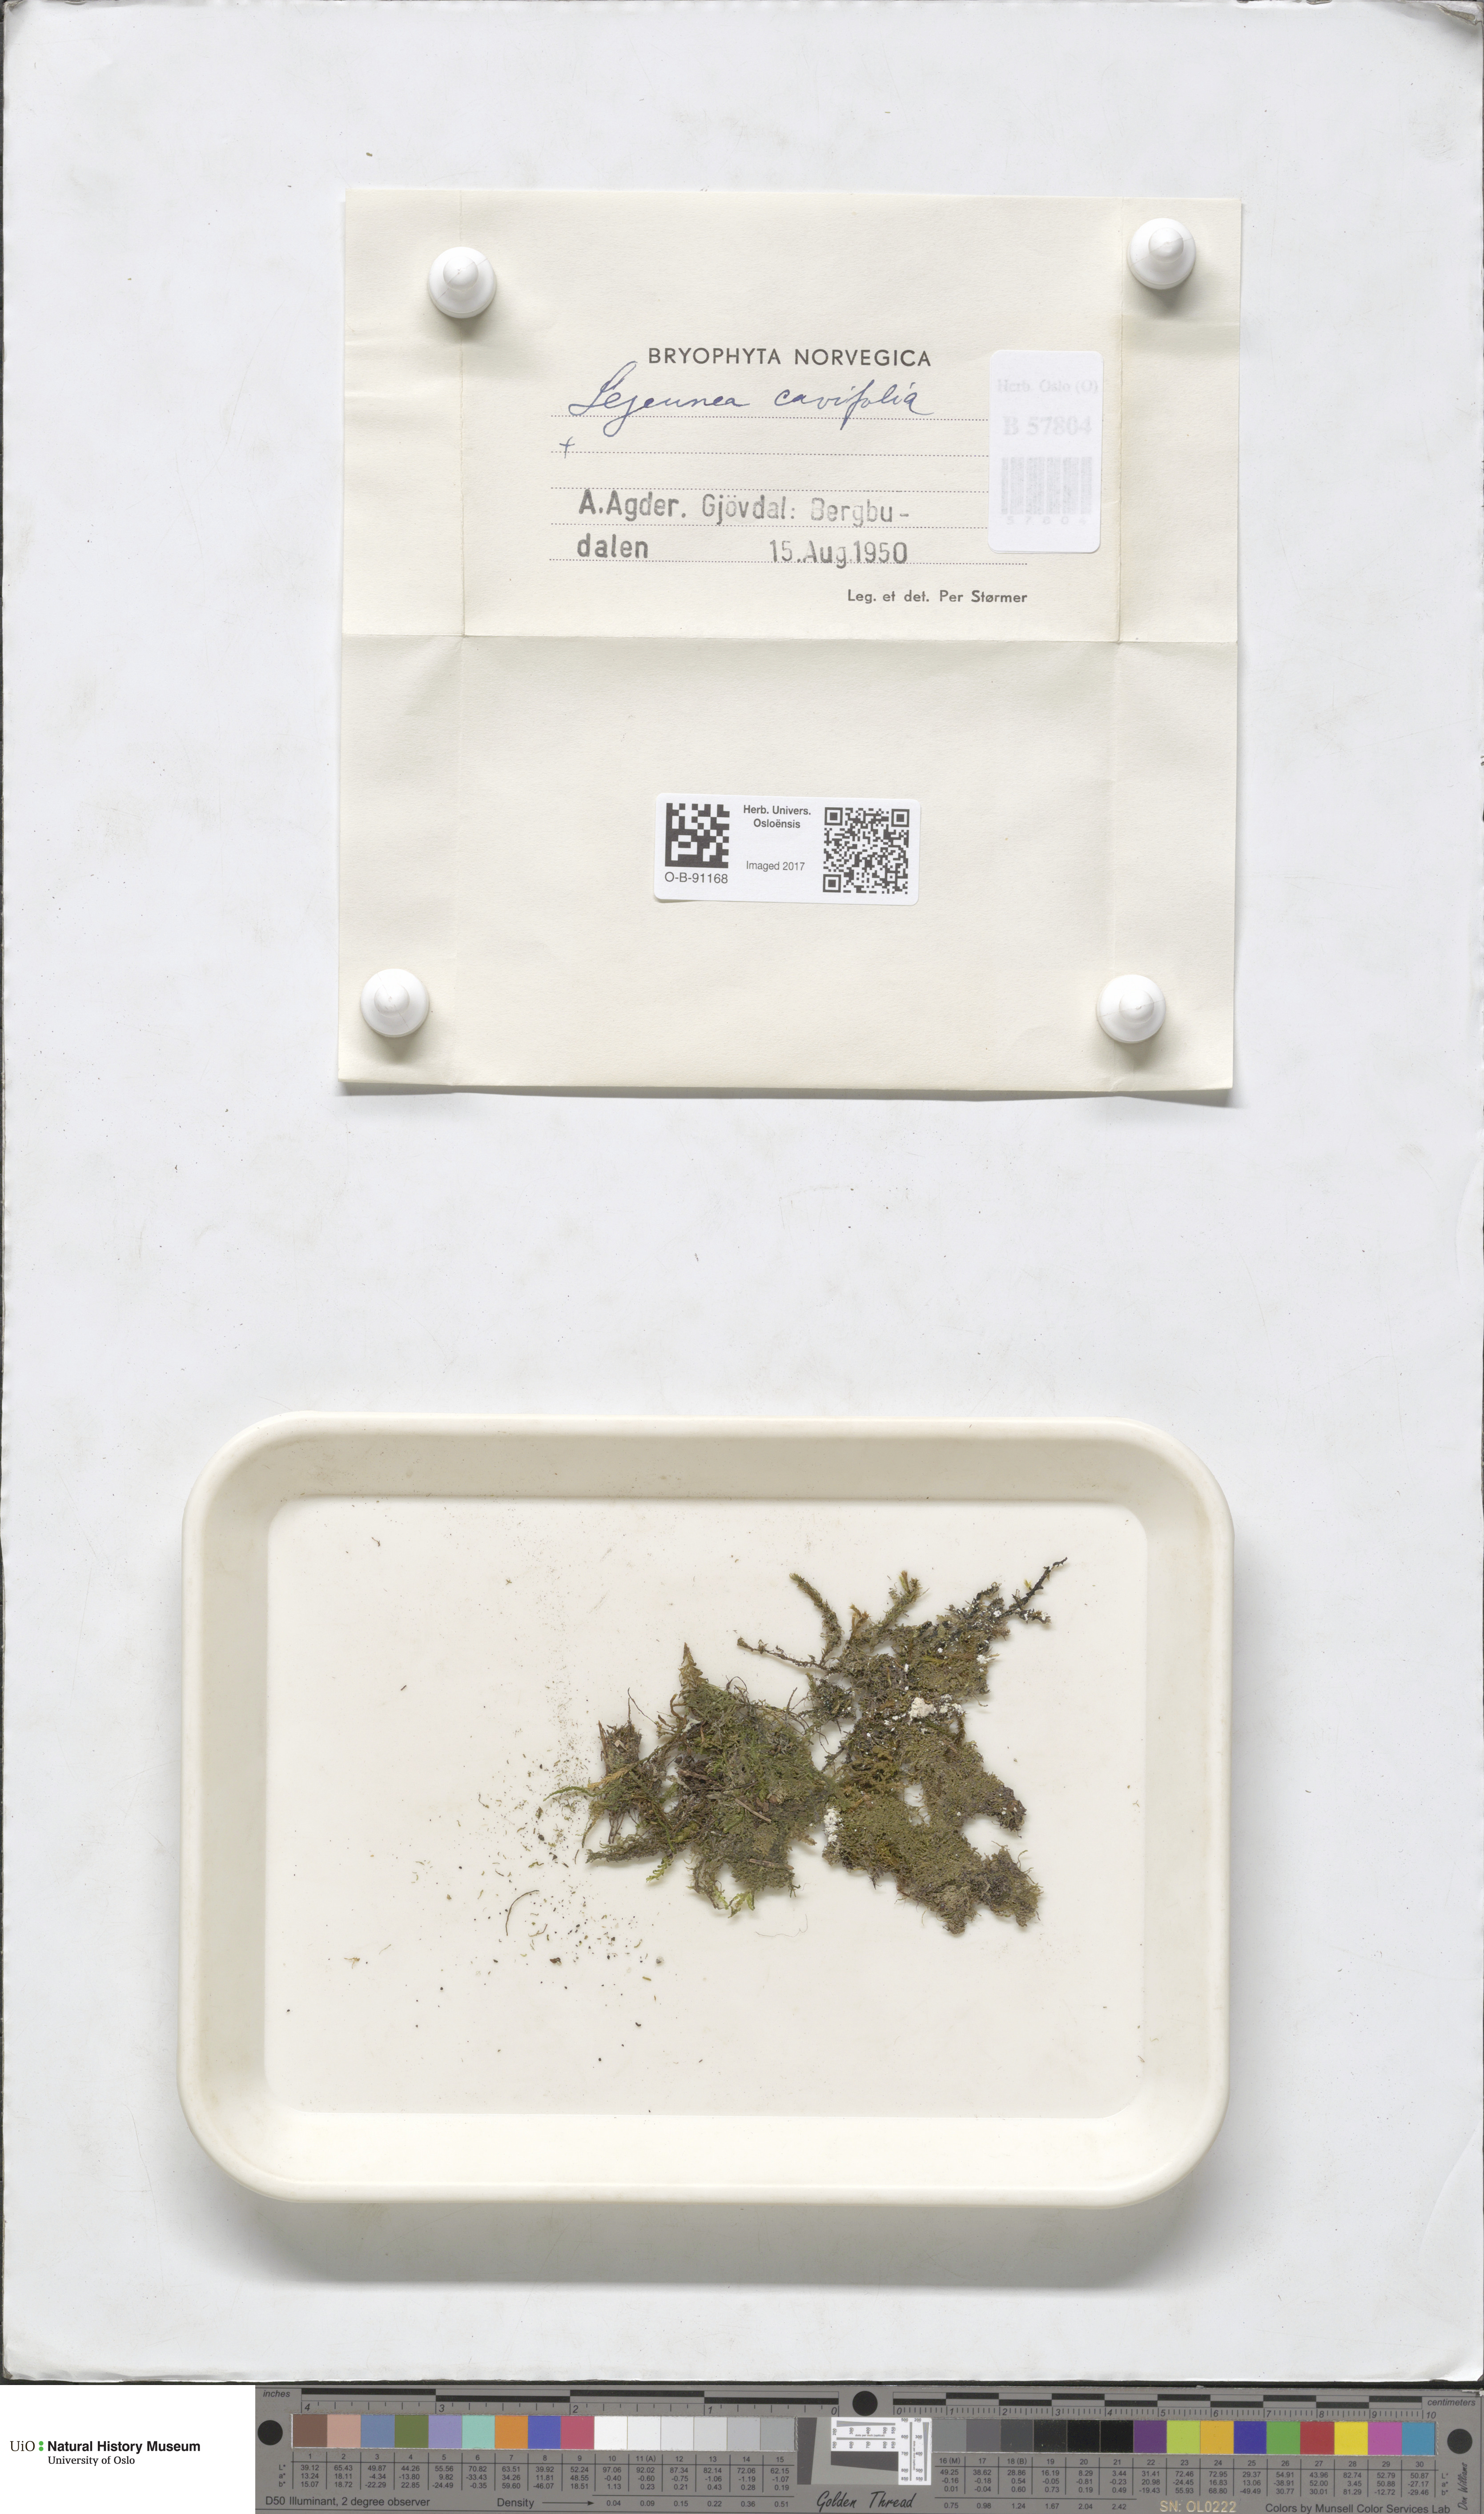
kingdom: Plantae
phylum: Marchantiophyta
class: Jungermanniopsida
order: Porellales
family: Lejeuneaceae
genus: Lejeunea
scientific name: Lejeunea cavifolia
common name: Least pouncewort
